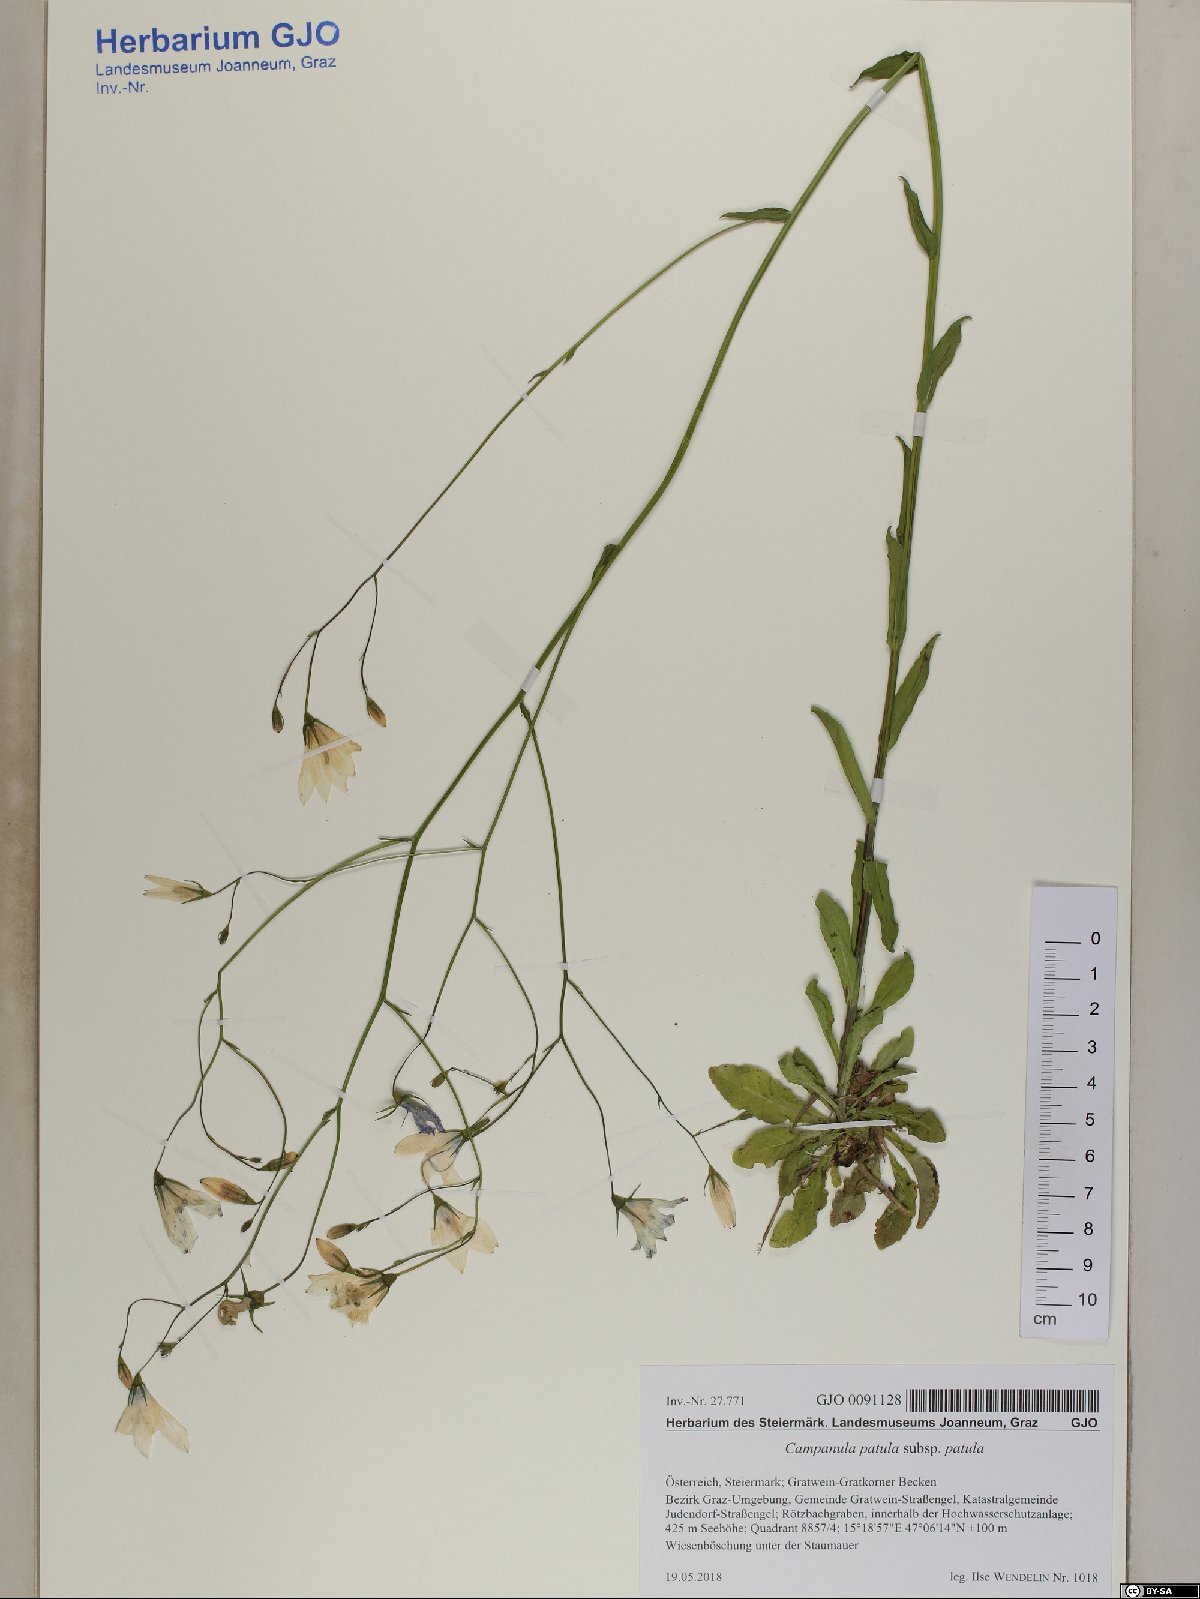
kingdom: Plantae
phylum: Tracheophyta
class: Magnoliopsida
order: Asterales
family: Campanulaceae
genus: Campanula
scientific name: Campanula patula
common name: Spreading bellflower
